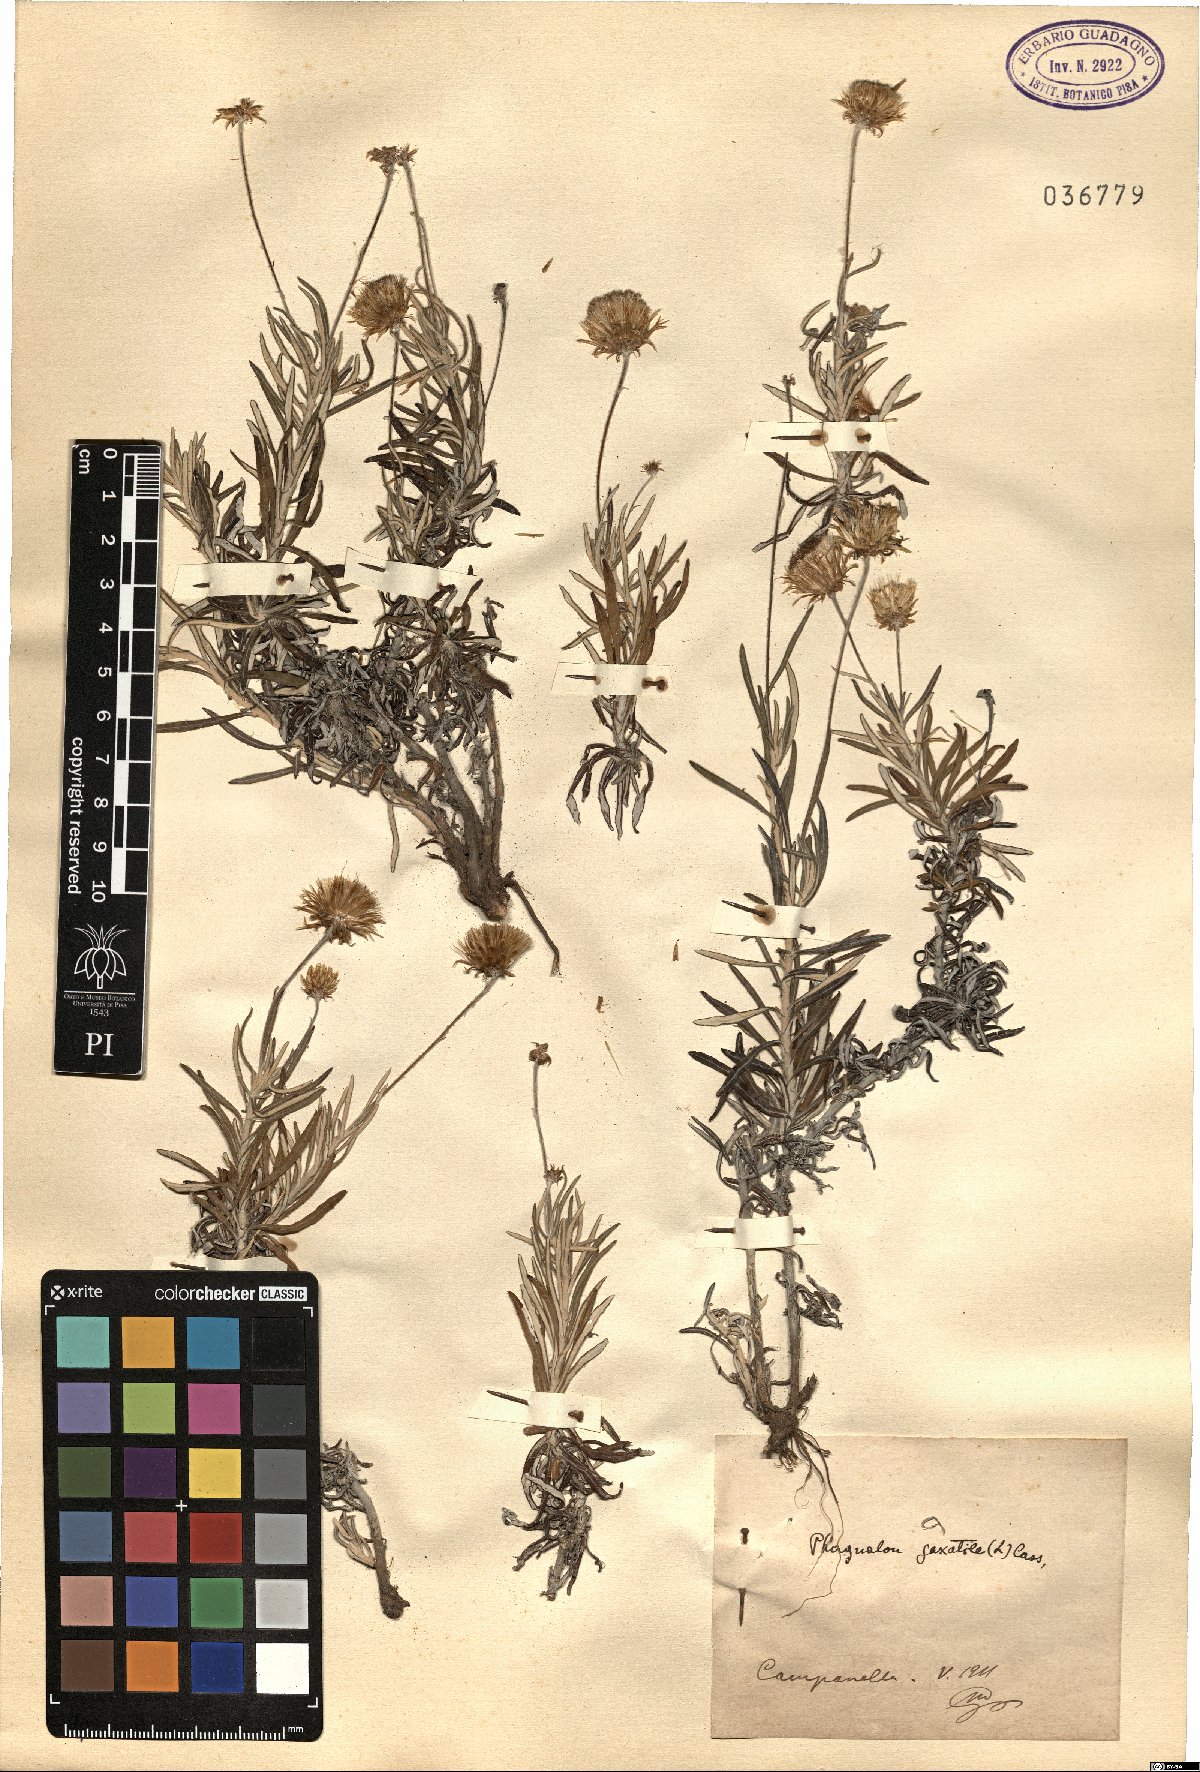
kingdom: Plantae
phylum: Tracheophyta
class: Magnoliopsida
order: Asterales
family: Asteraceae
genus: Phagnalon
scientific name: Phagnalon saxatile
